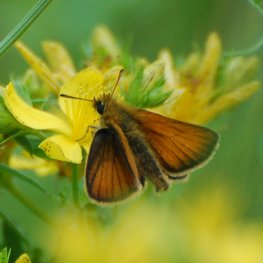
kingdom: Animalia
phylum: Arthropoda
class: Insecta
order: Lepidoptera
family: Hesperiidae
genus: Thymelicus
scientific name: Thymelicus lineola
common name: European Skipper
